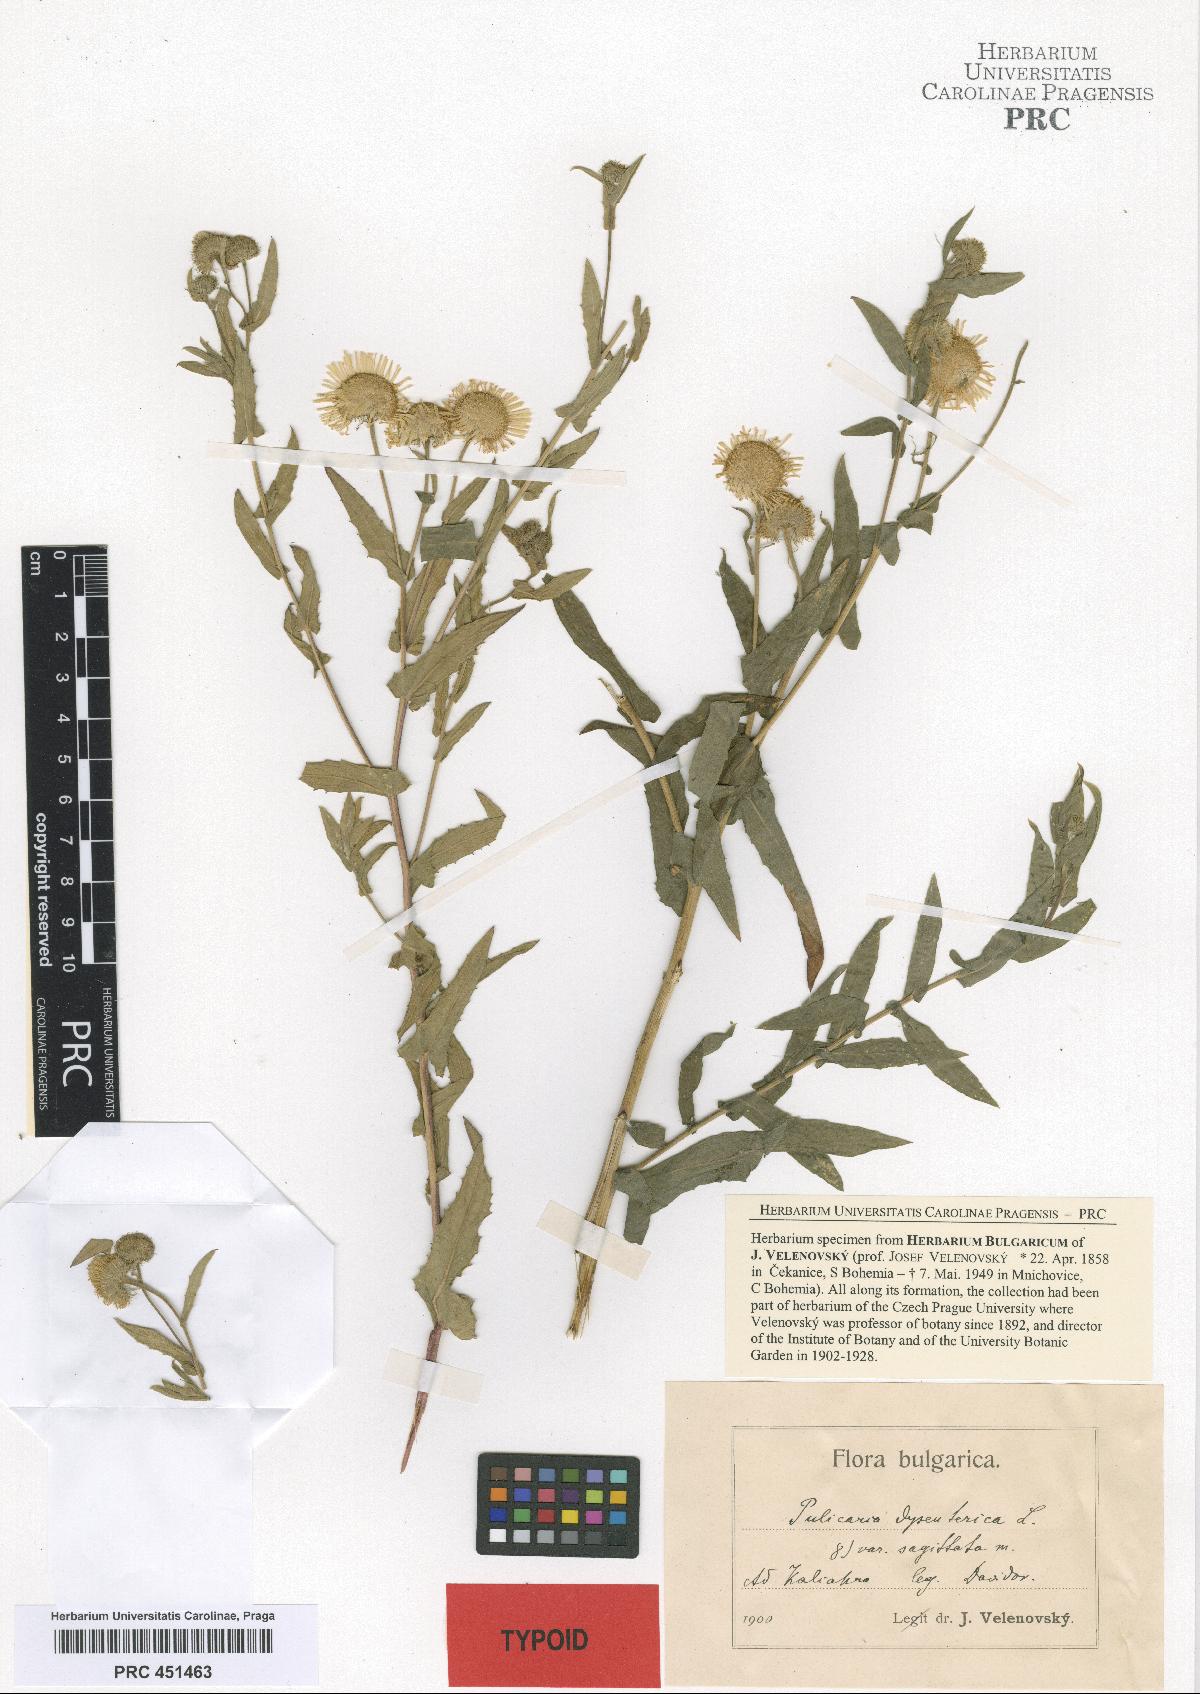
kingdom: Plantae
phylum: Tracheophyta
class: Magnoliopsida
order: Asterales
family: Asteraceae
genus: Pulicaria
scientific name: Pulicaria dysenterica
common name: Common fleabane
